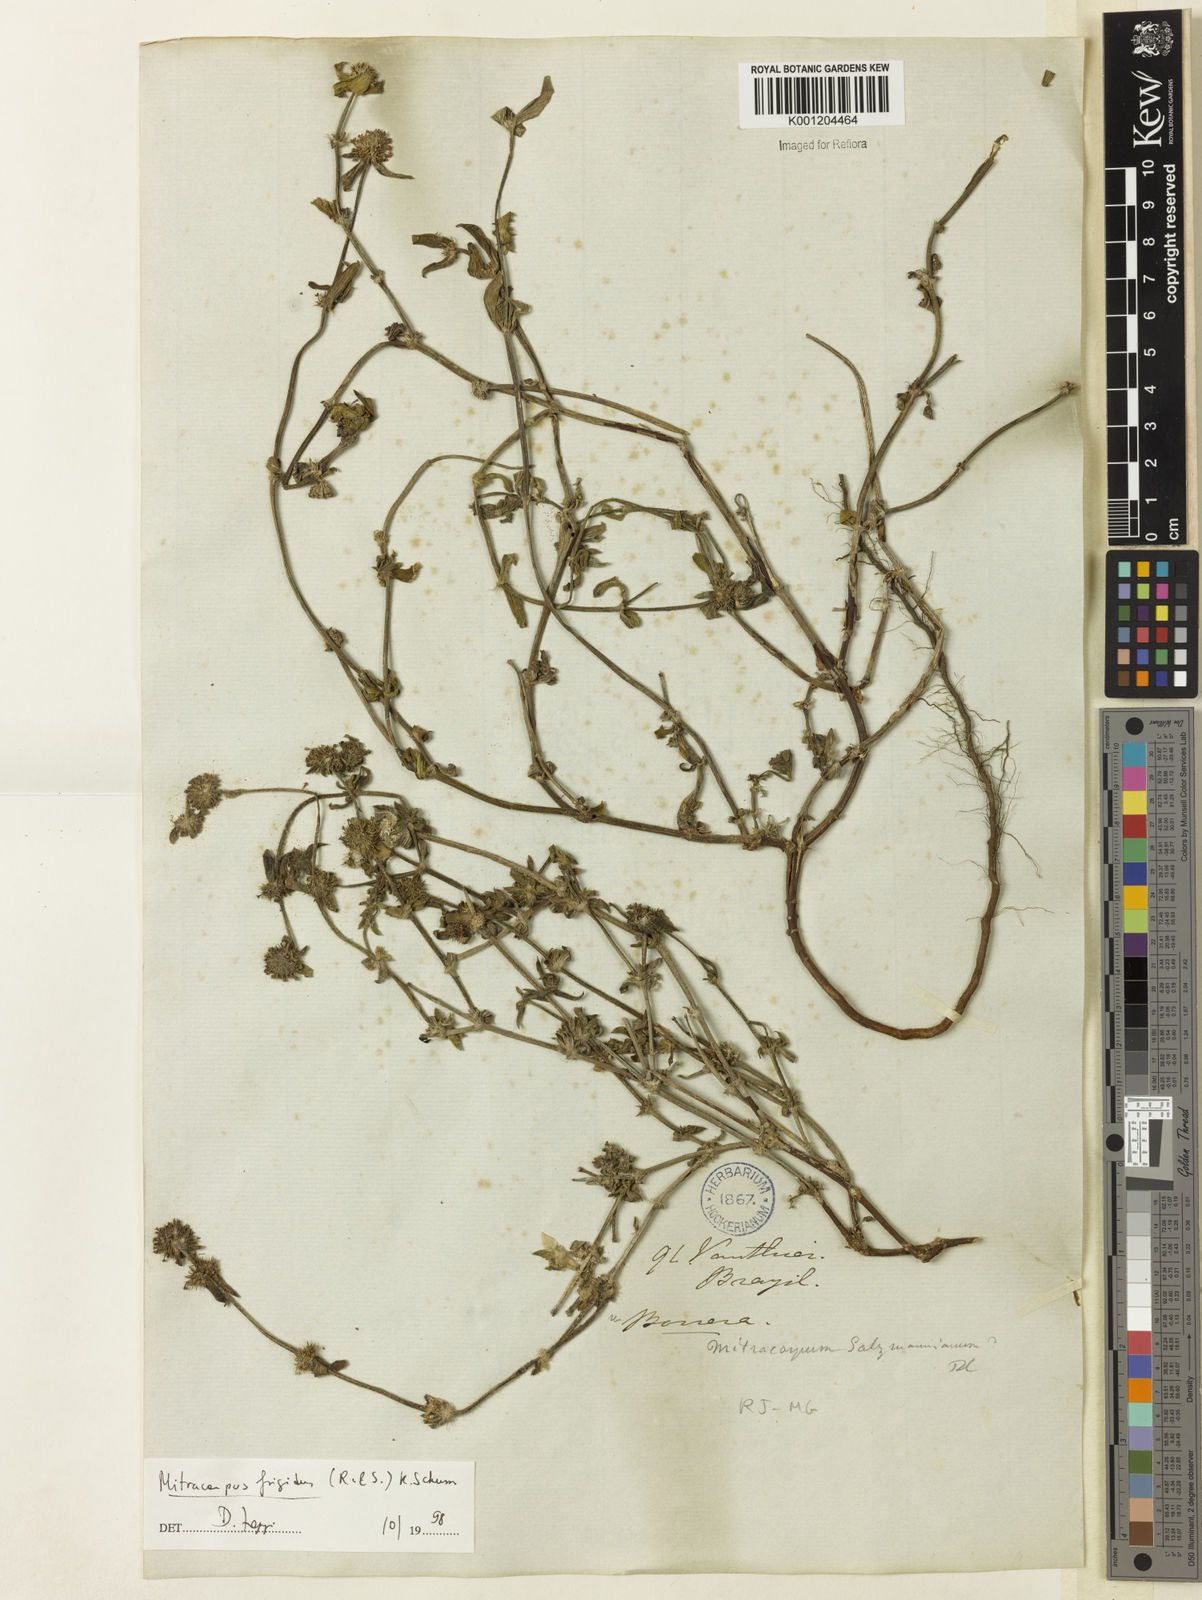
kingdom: Plantae
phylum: Tracheophyta
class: Magnoliopsida
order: Gentianales
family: Rubiaceae
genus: Mitracarpus
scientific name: Mitracarpus frigidus
